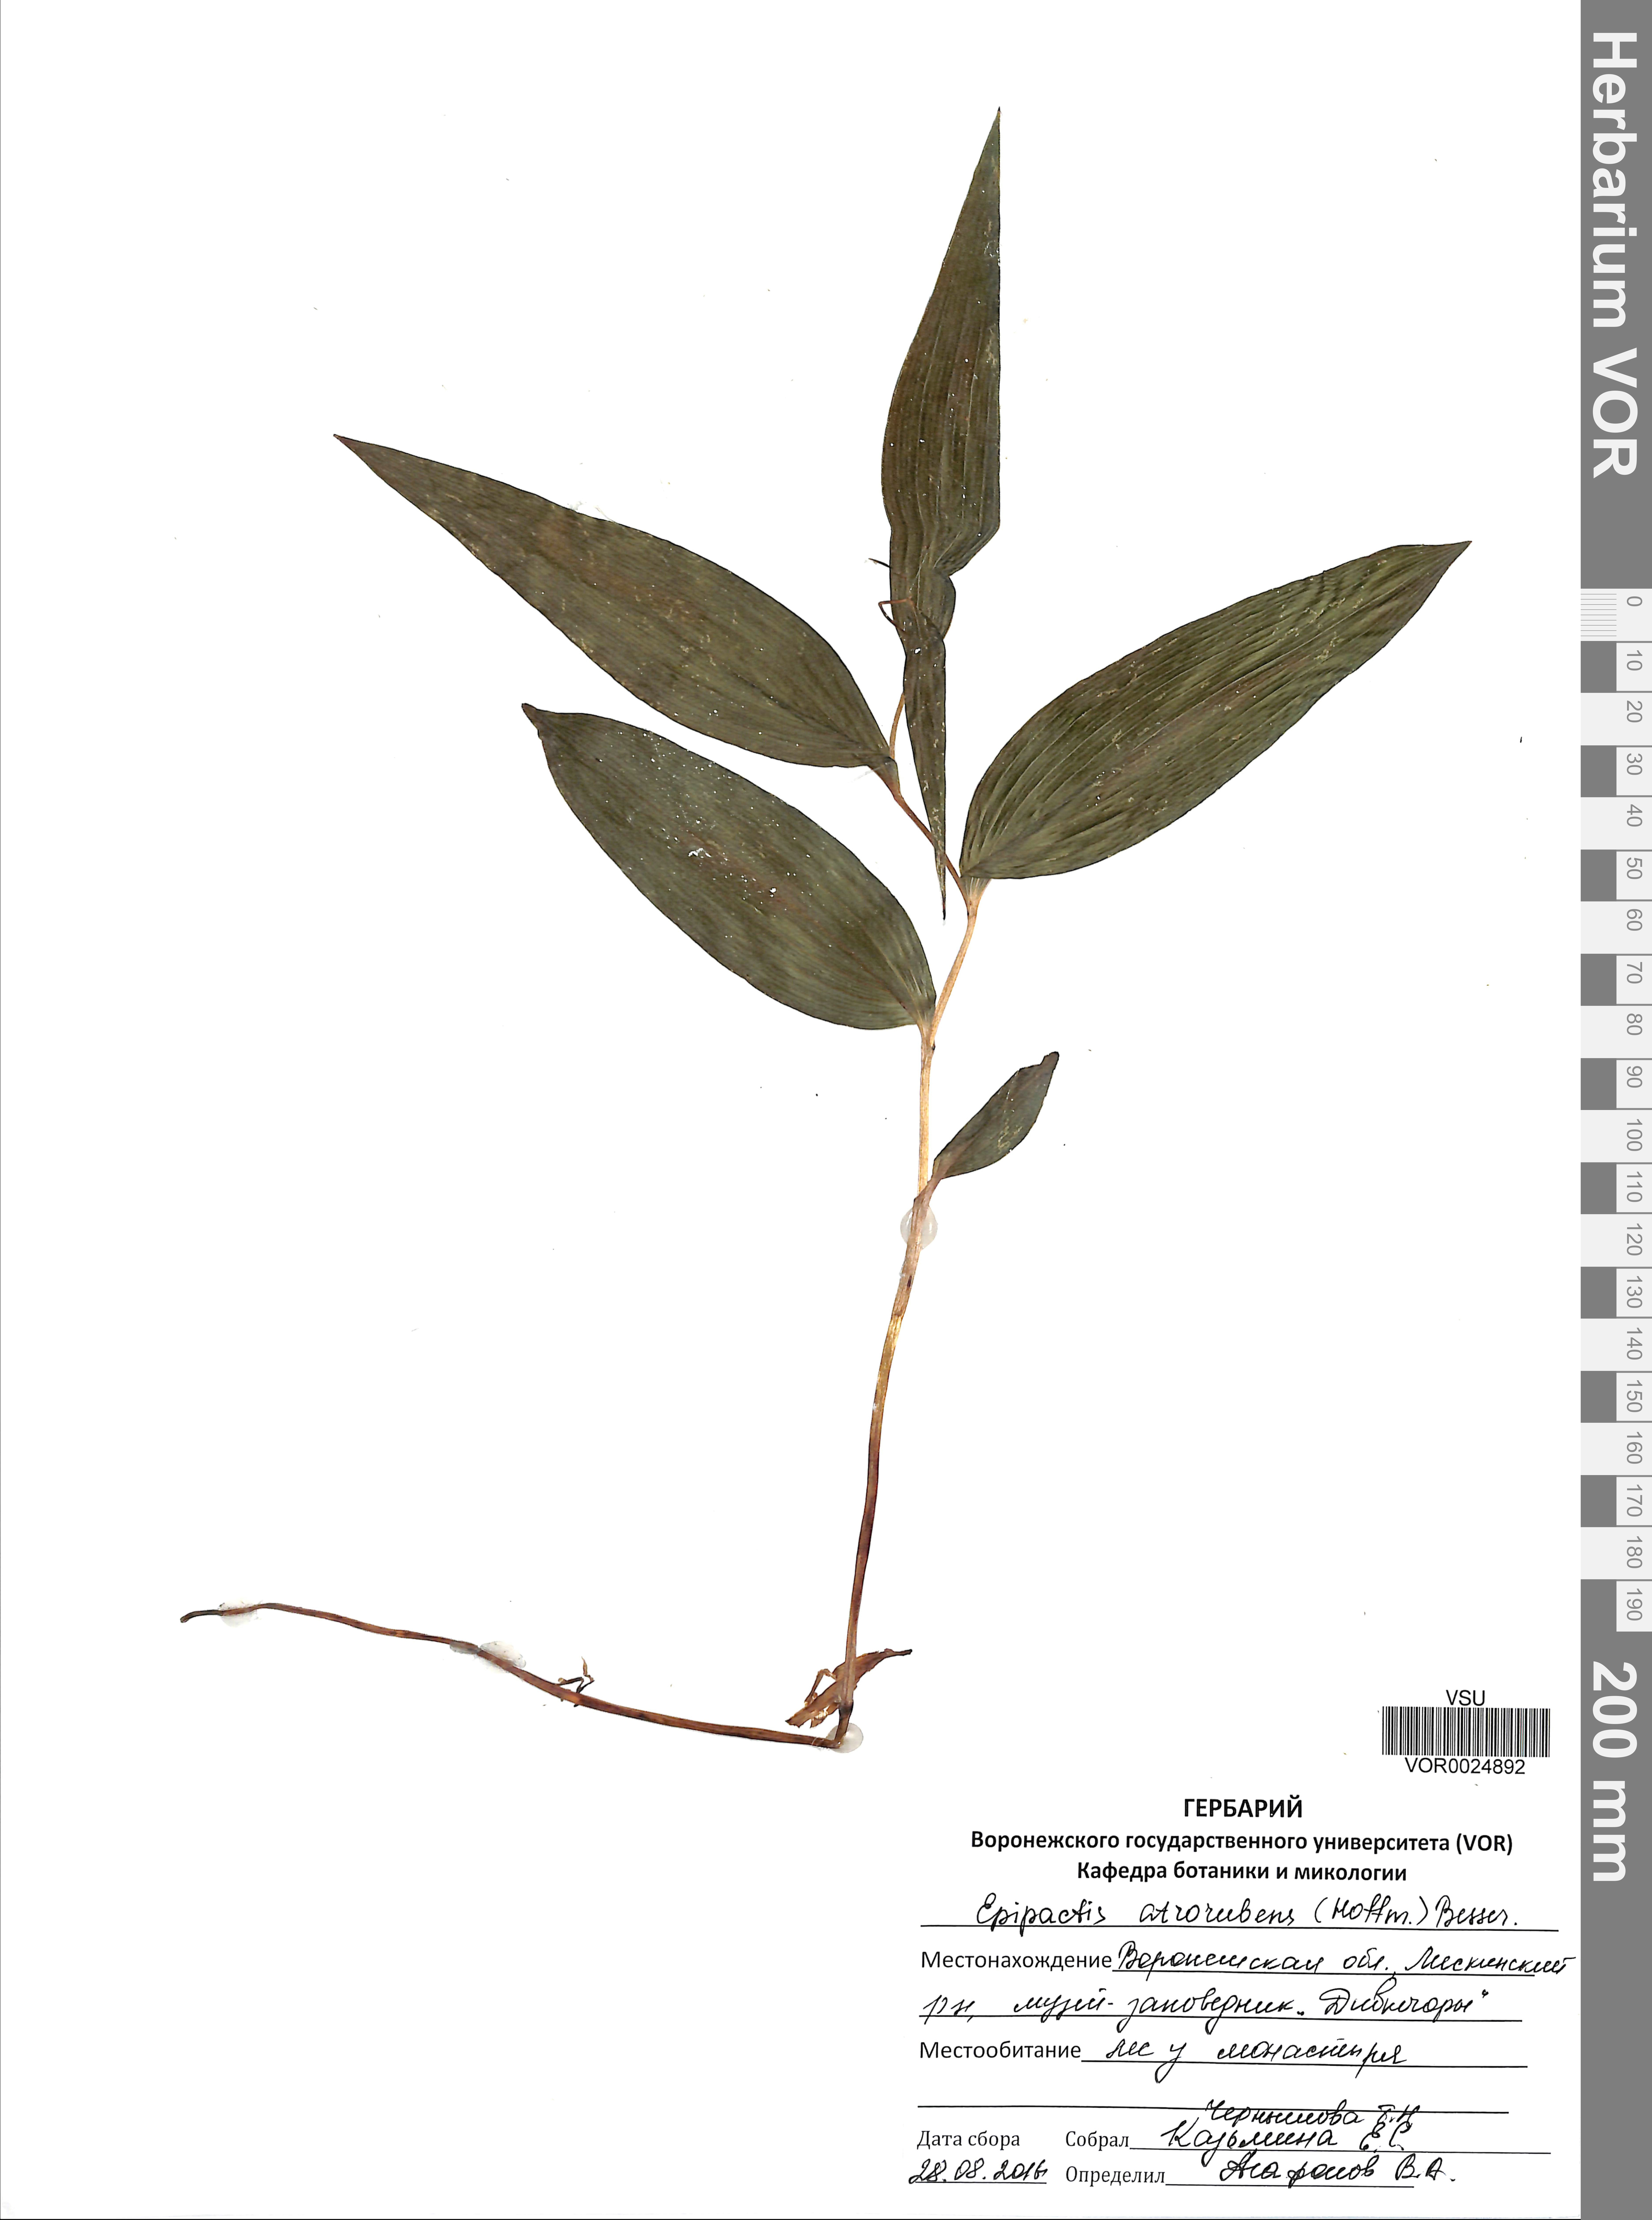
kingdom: Plantae
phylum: Tracheophyta
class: Liliopsida
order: Asparagales
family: Orchidaceae
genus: Epipactis
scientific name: Epipactis atrorubens
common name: Dark-red helleborine
